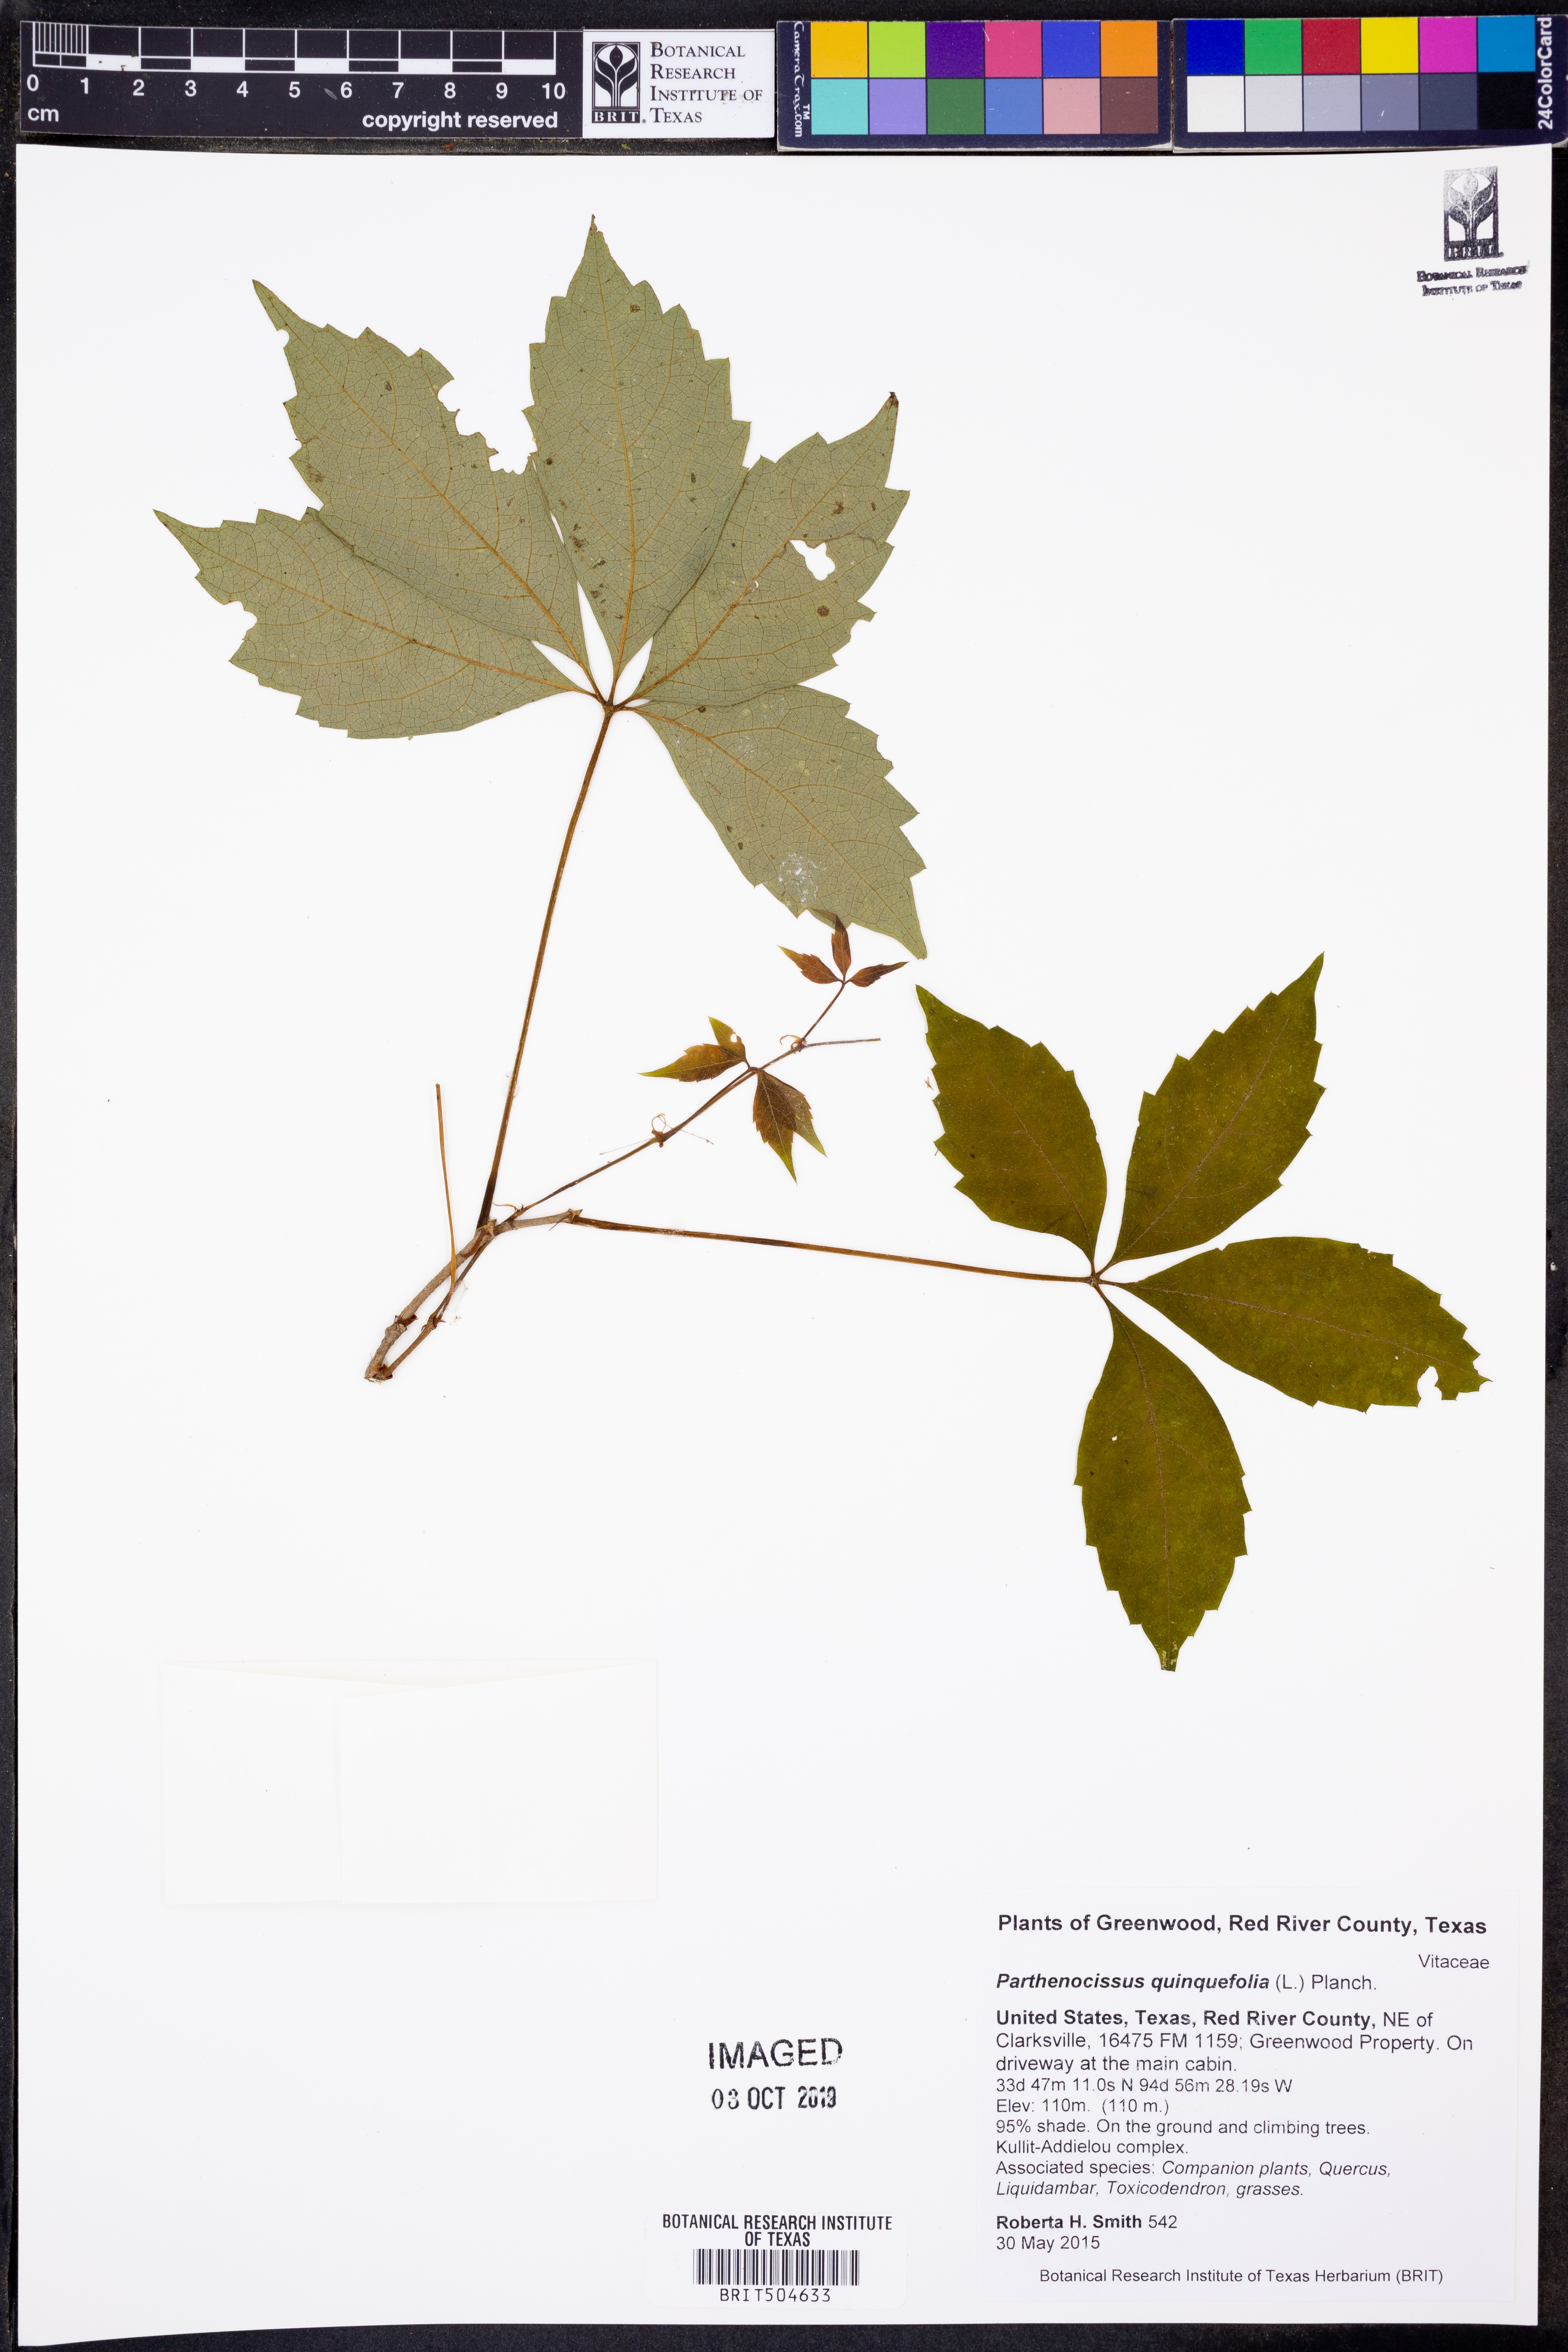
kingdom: Plantae
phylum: Tracheophyta
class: Magnoliopsida
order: Vitales
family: Vitaceae
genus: Parthenocissus
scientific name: Parthenocissus quinquefolia
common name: Virginia-creeper
